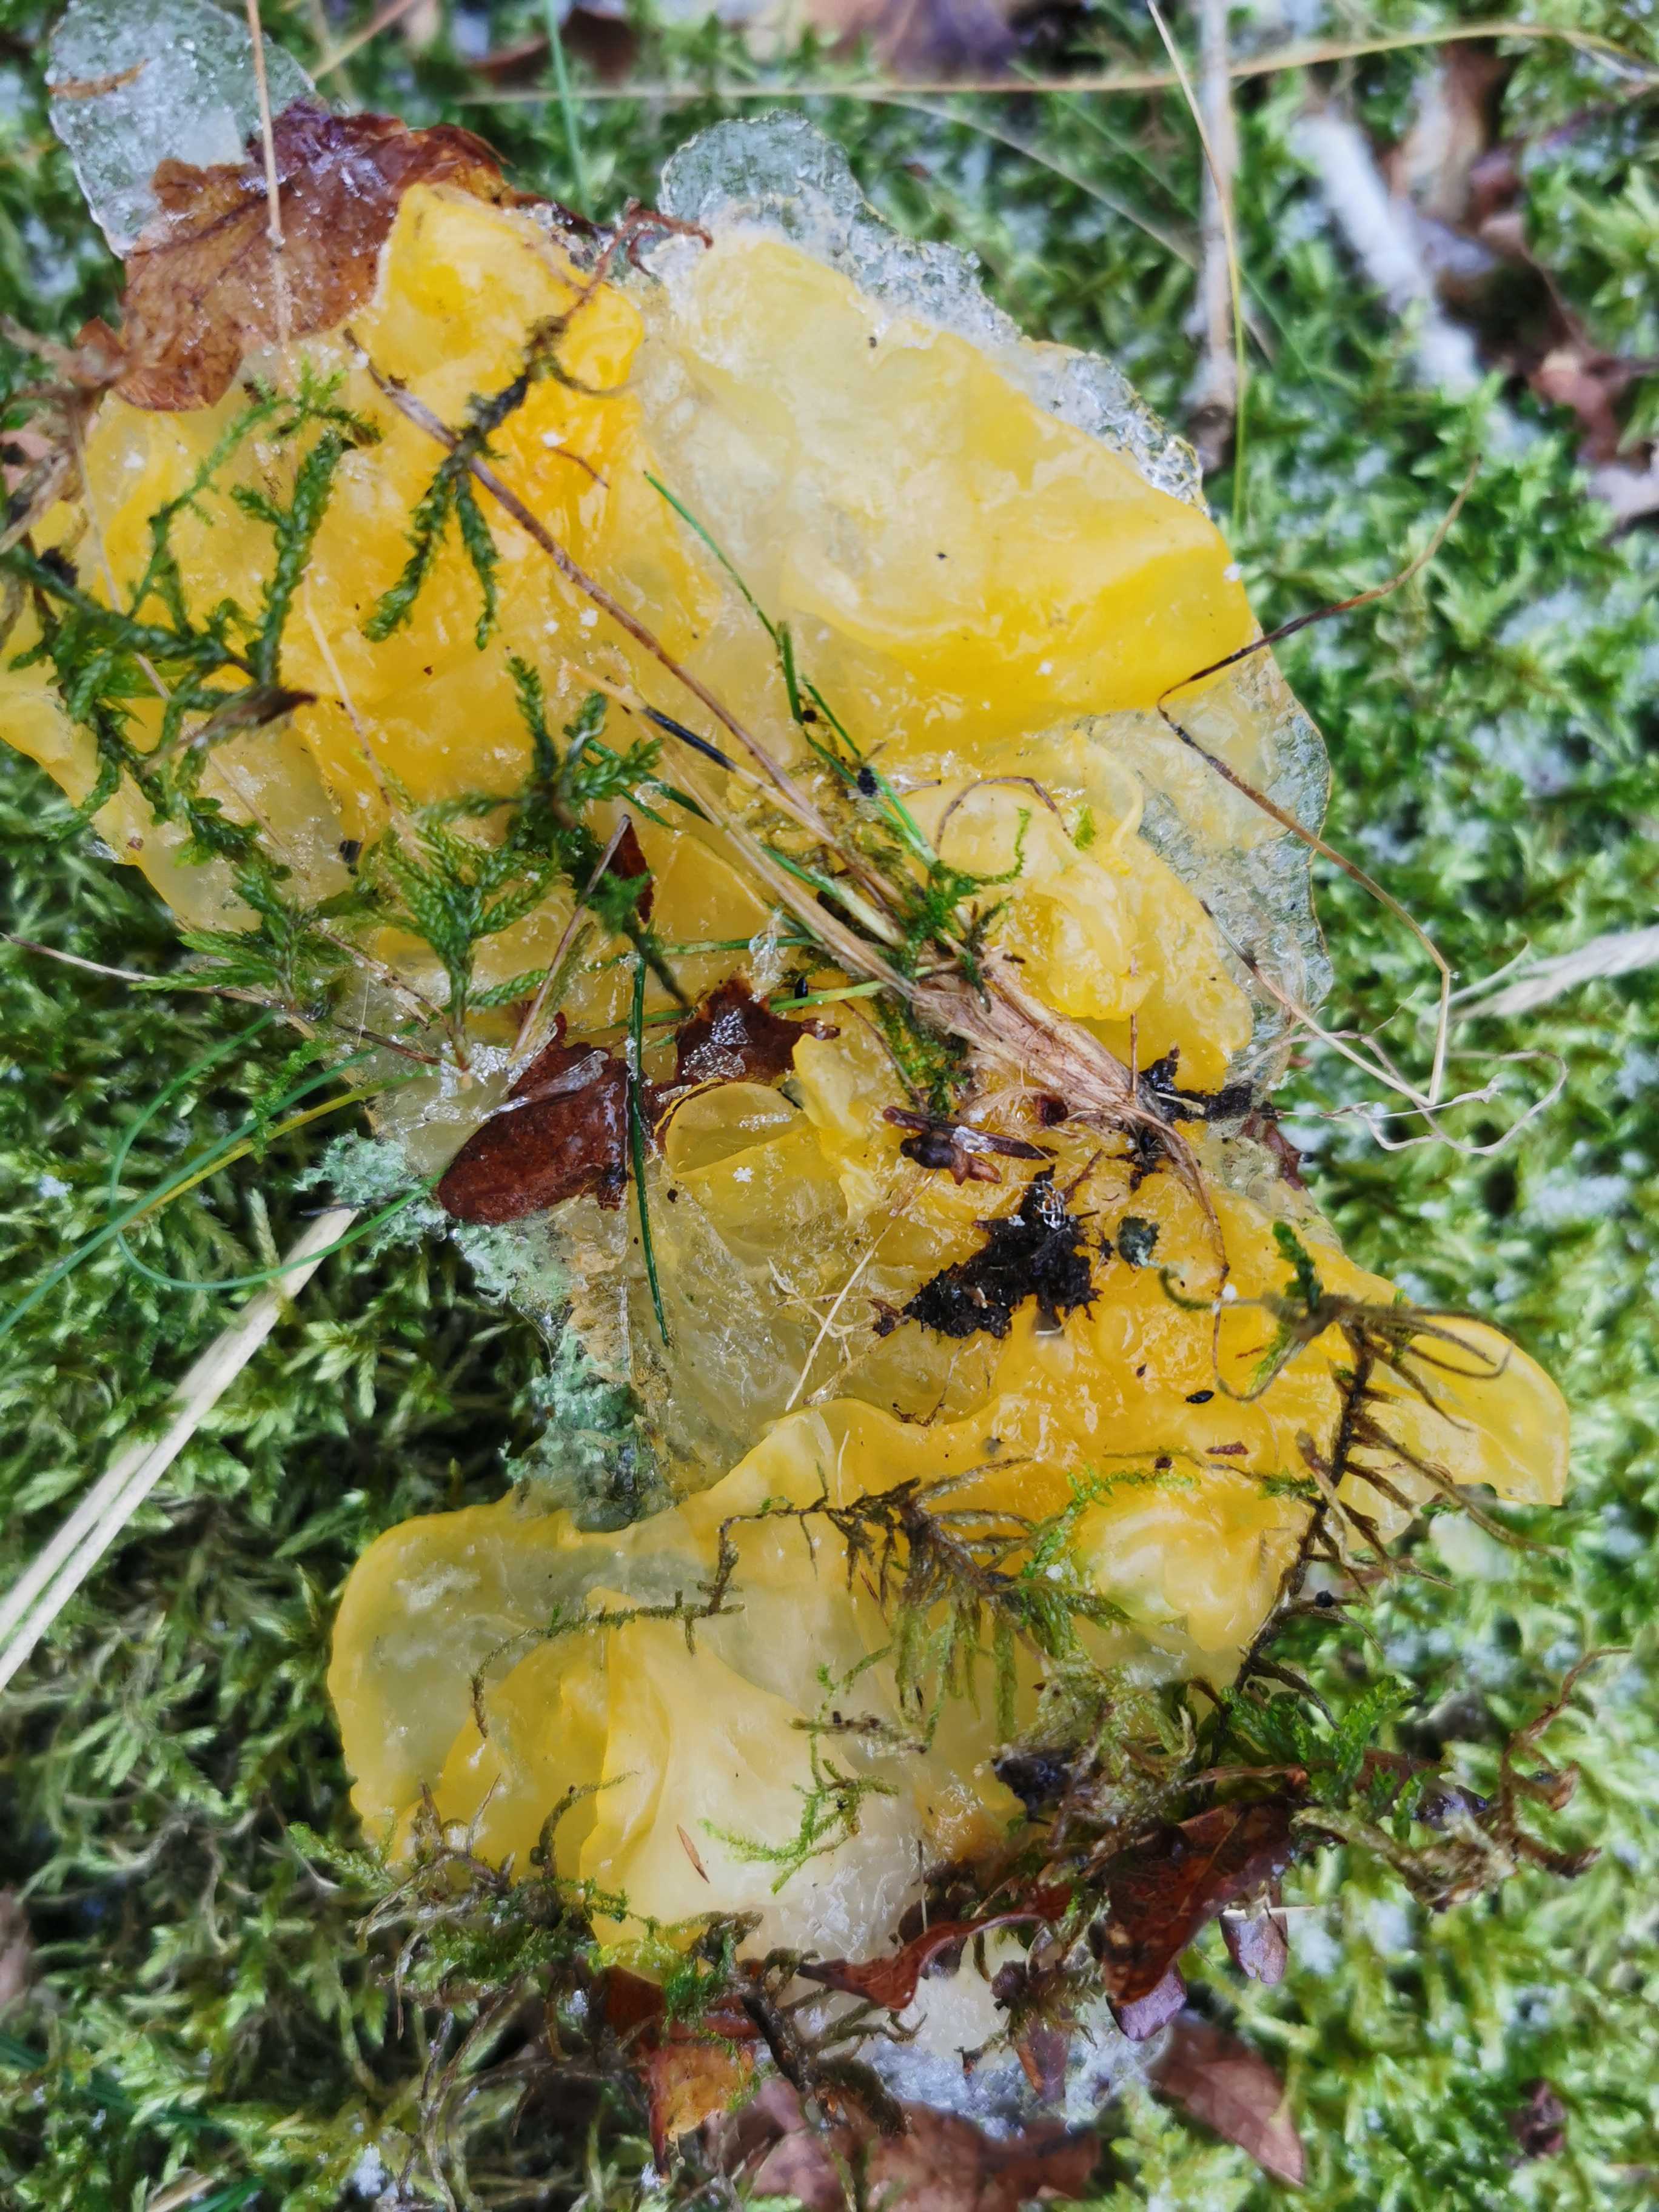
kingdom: Fungi
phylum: Basidiomycota
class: Tremellomycetes
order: Tremellales
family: Tremellaceae
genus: Tremella
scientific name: Tremella mesenterica
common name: gul bævresvamp
